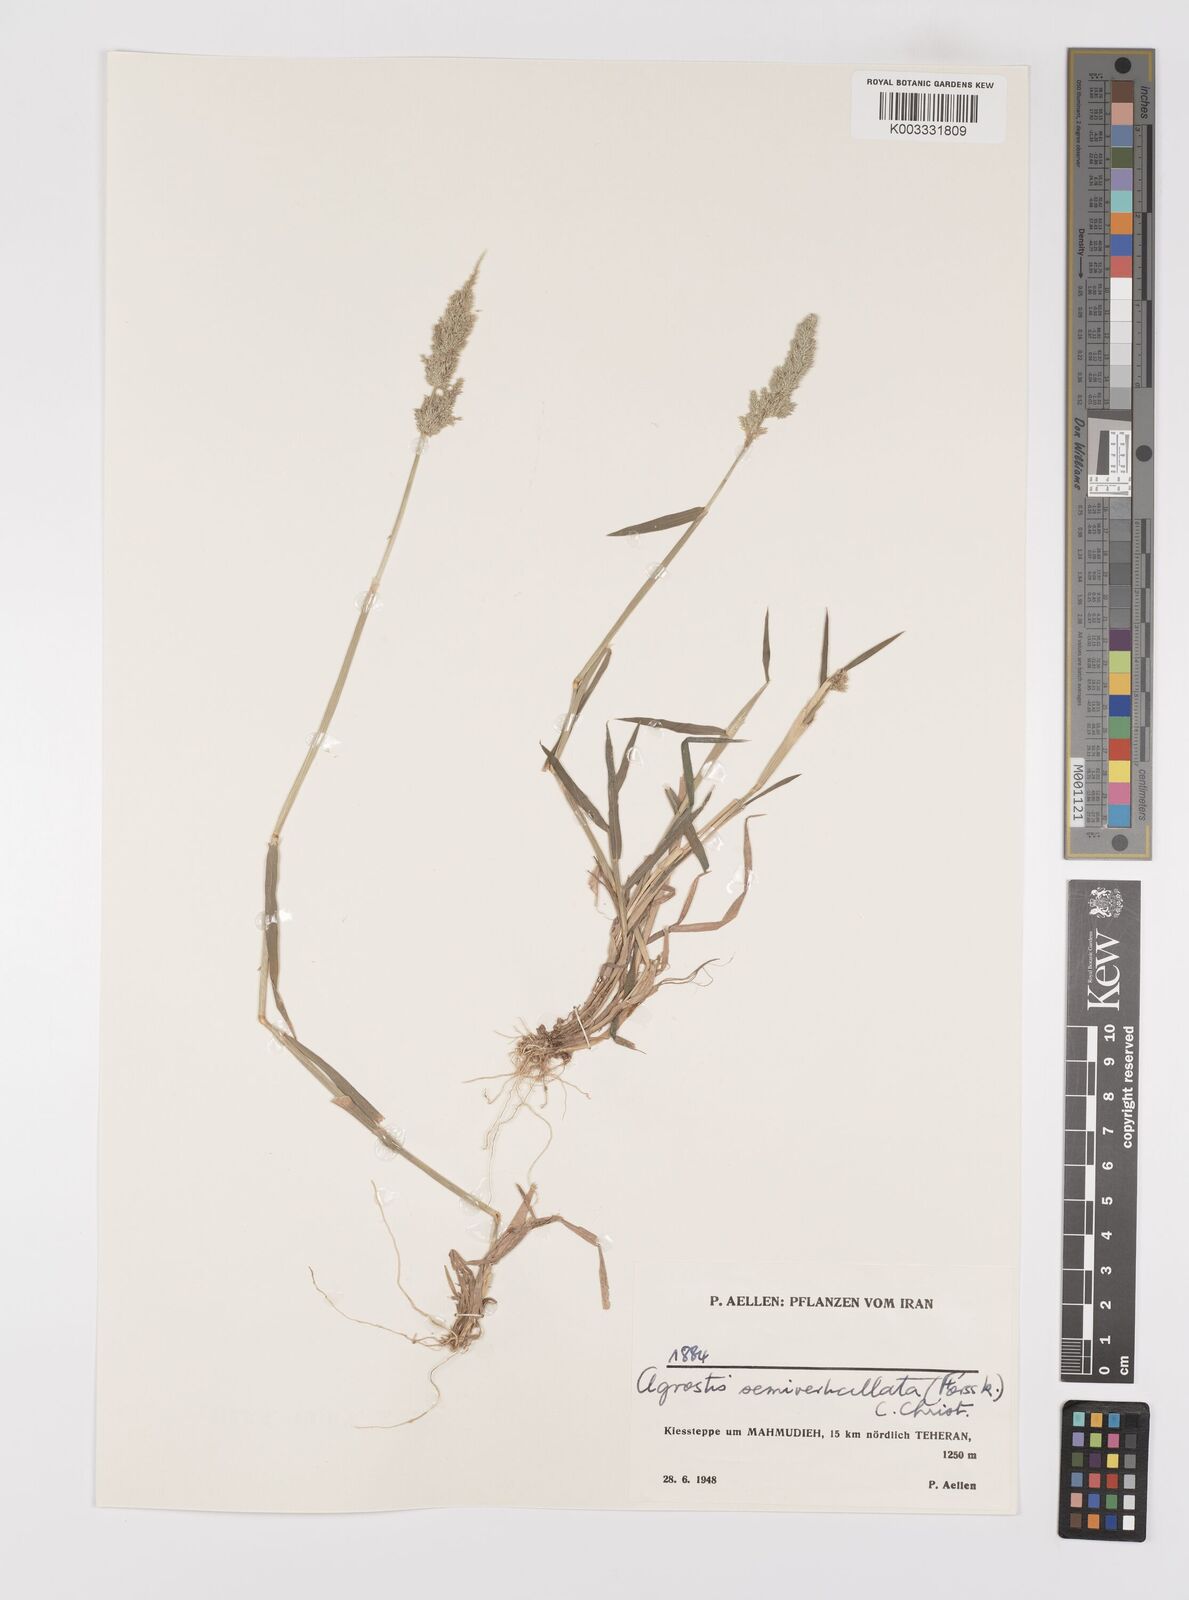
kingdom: Plantae
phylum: Tracheophyta
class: Liliopsida
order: Poales
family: Poaceae
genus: Polypogon
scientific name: Polypogon viridis
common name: Water bent
